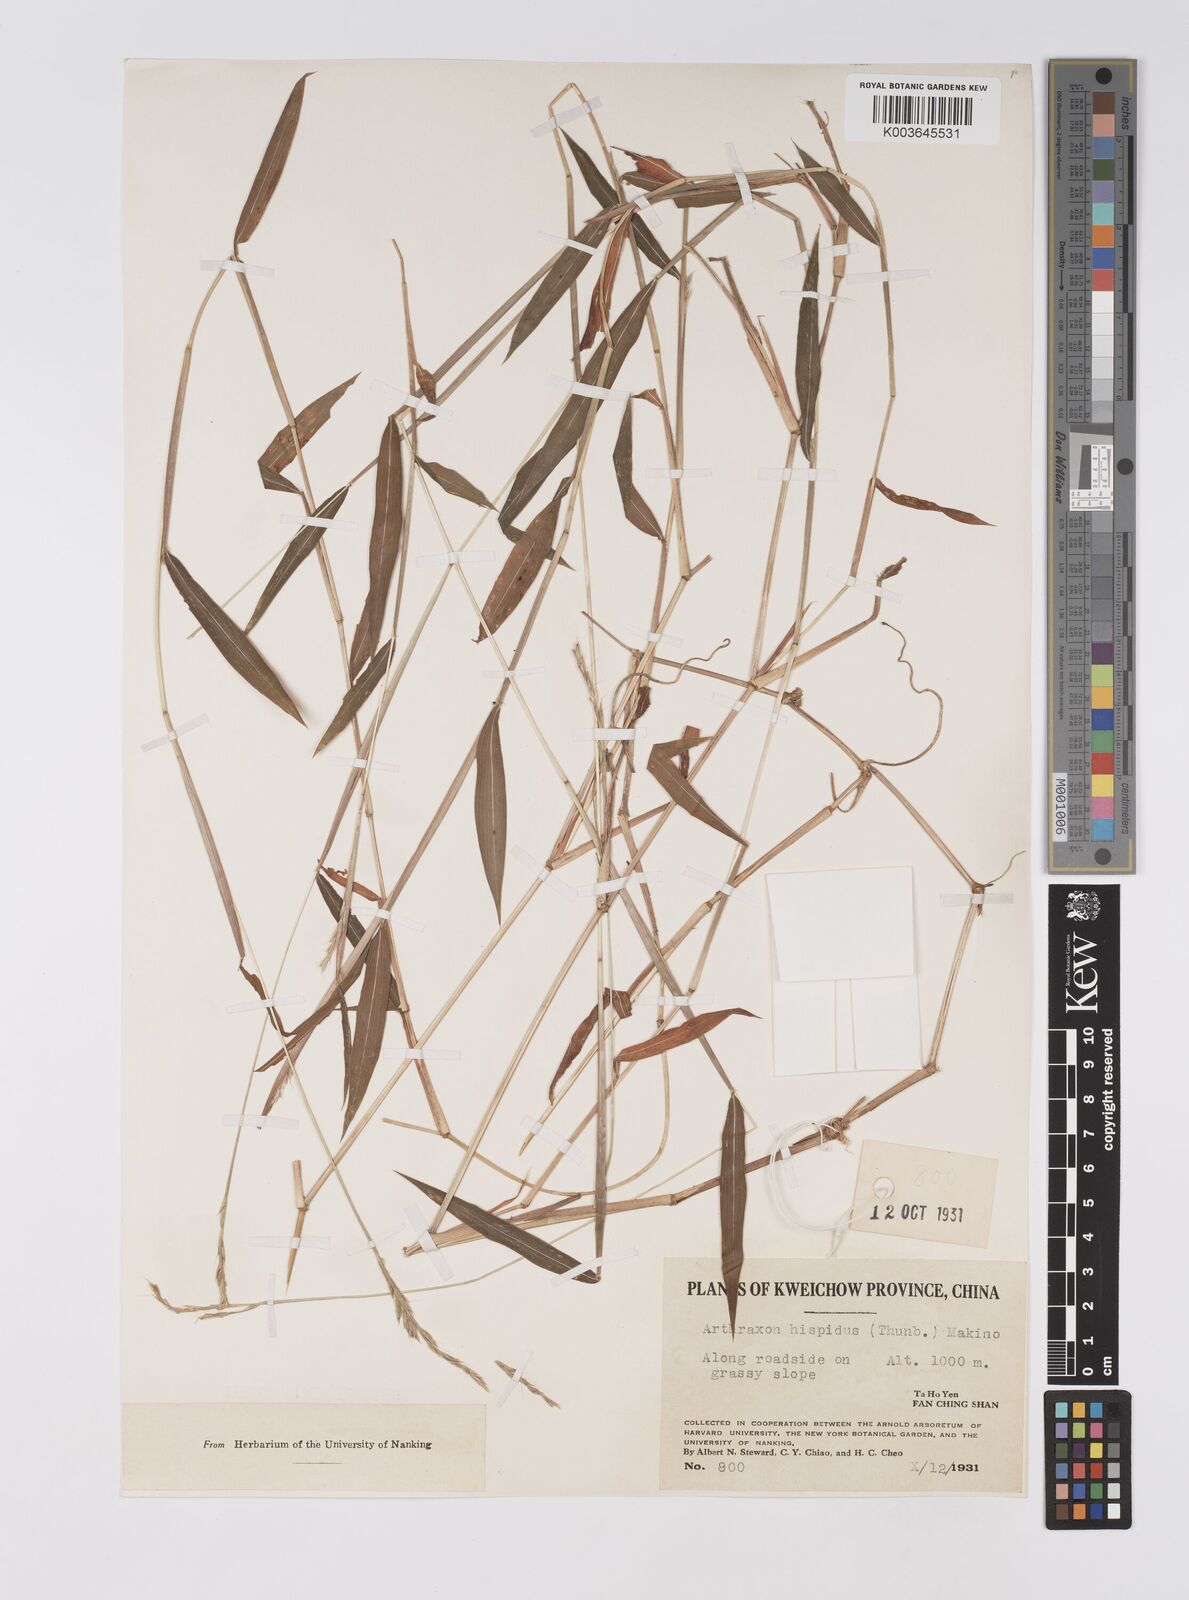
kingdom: Plantae
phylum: Tracheophyta
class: Liliopsida
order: Poales
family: Poaceae
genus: Microstegium
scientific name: Microstegium vimineum
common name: Japanese stiltgrass
